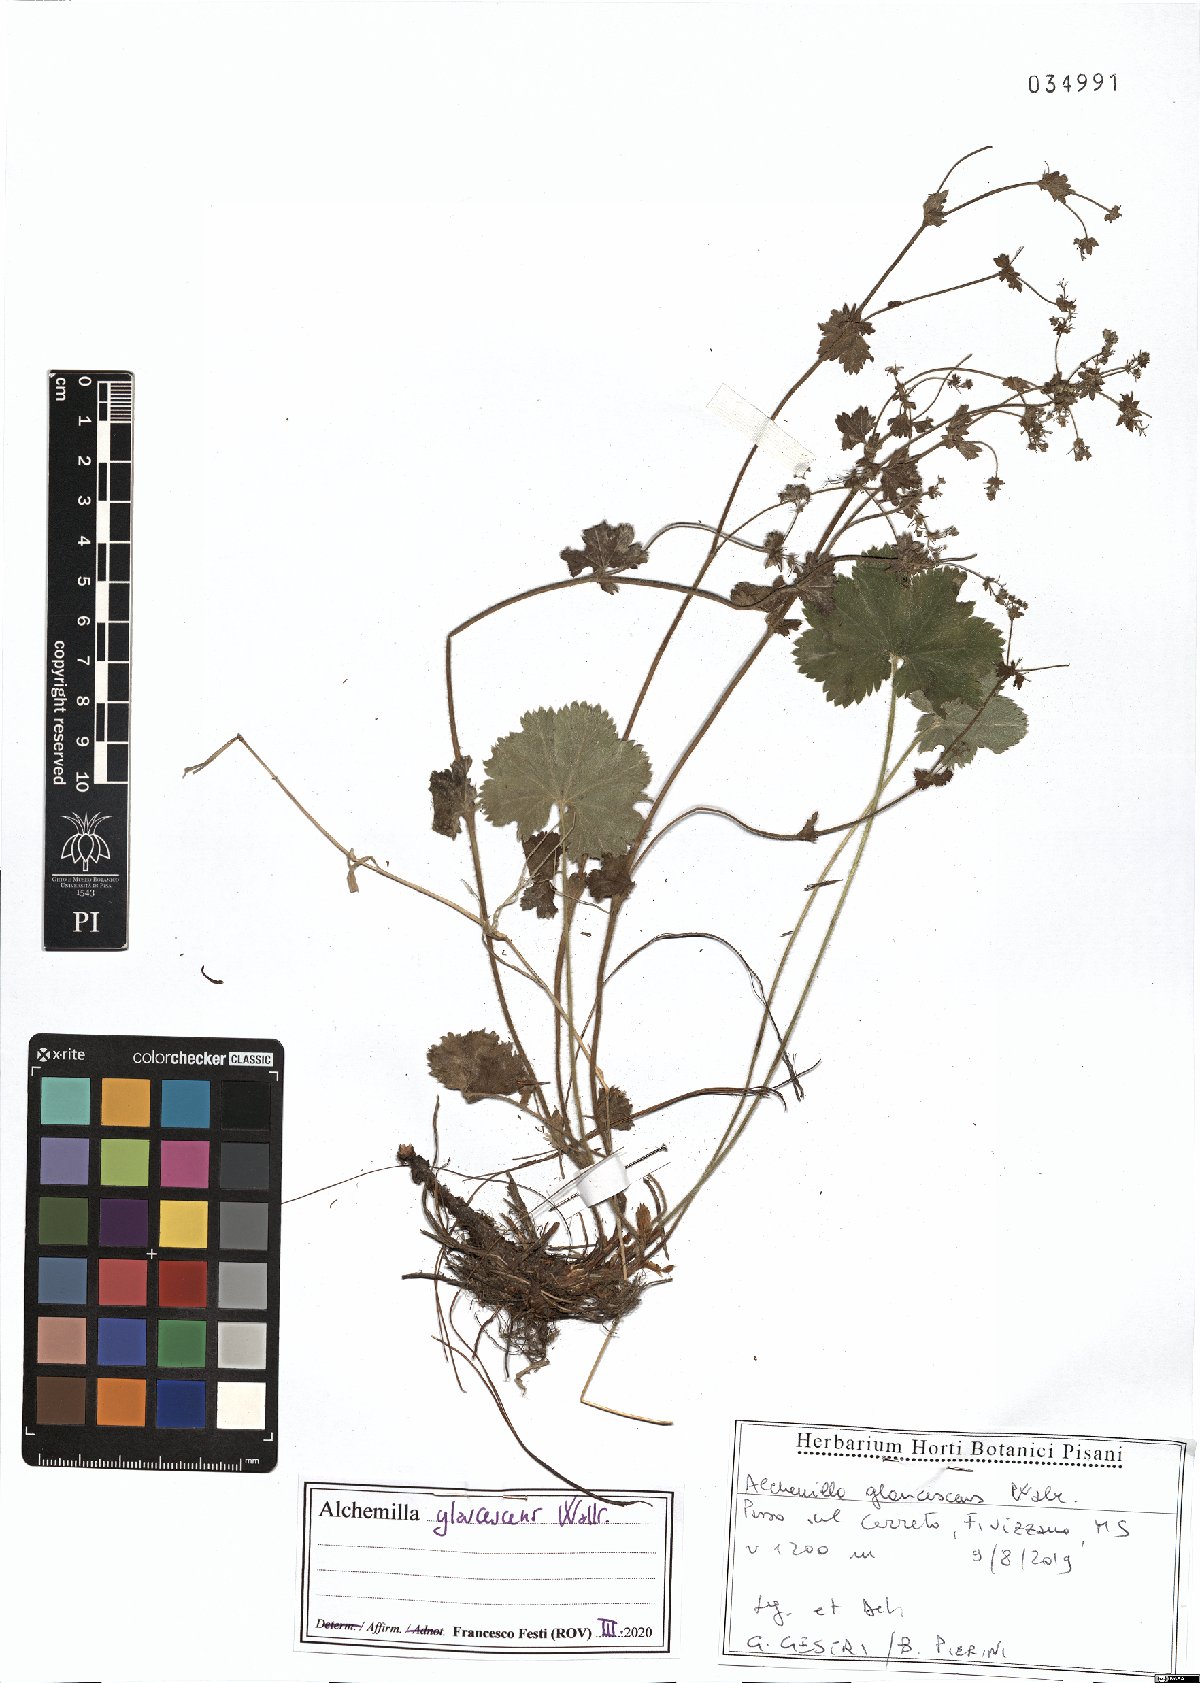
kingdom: Plantae
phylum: Tracheophyta
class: Magnoliopsida
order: Rosales
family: Rosaceae
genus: Alchemilla
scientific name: Alchemilla glaucescens
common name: Silky lady's mantle
